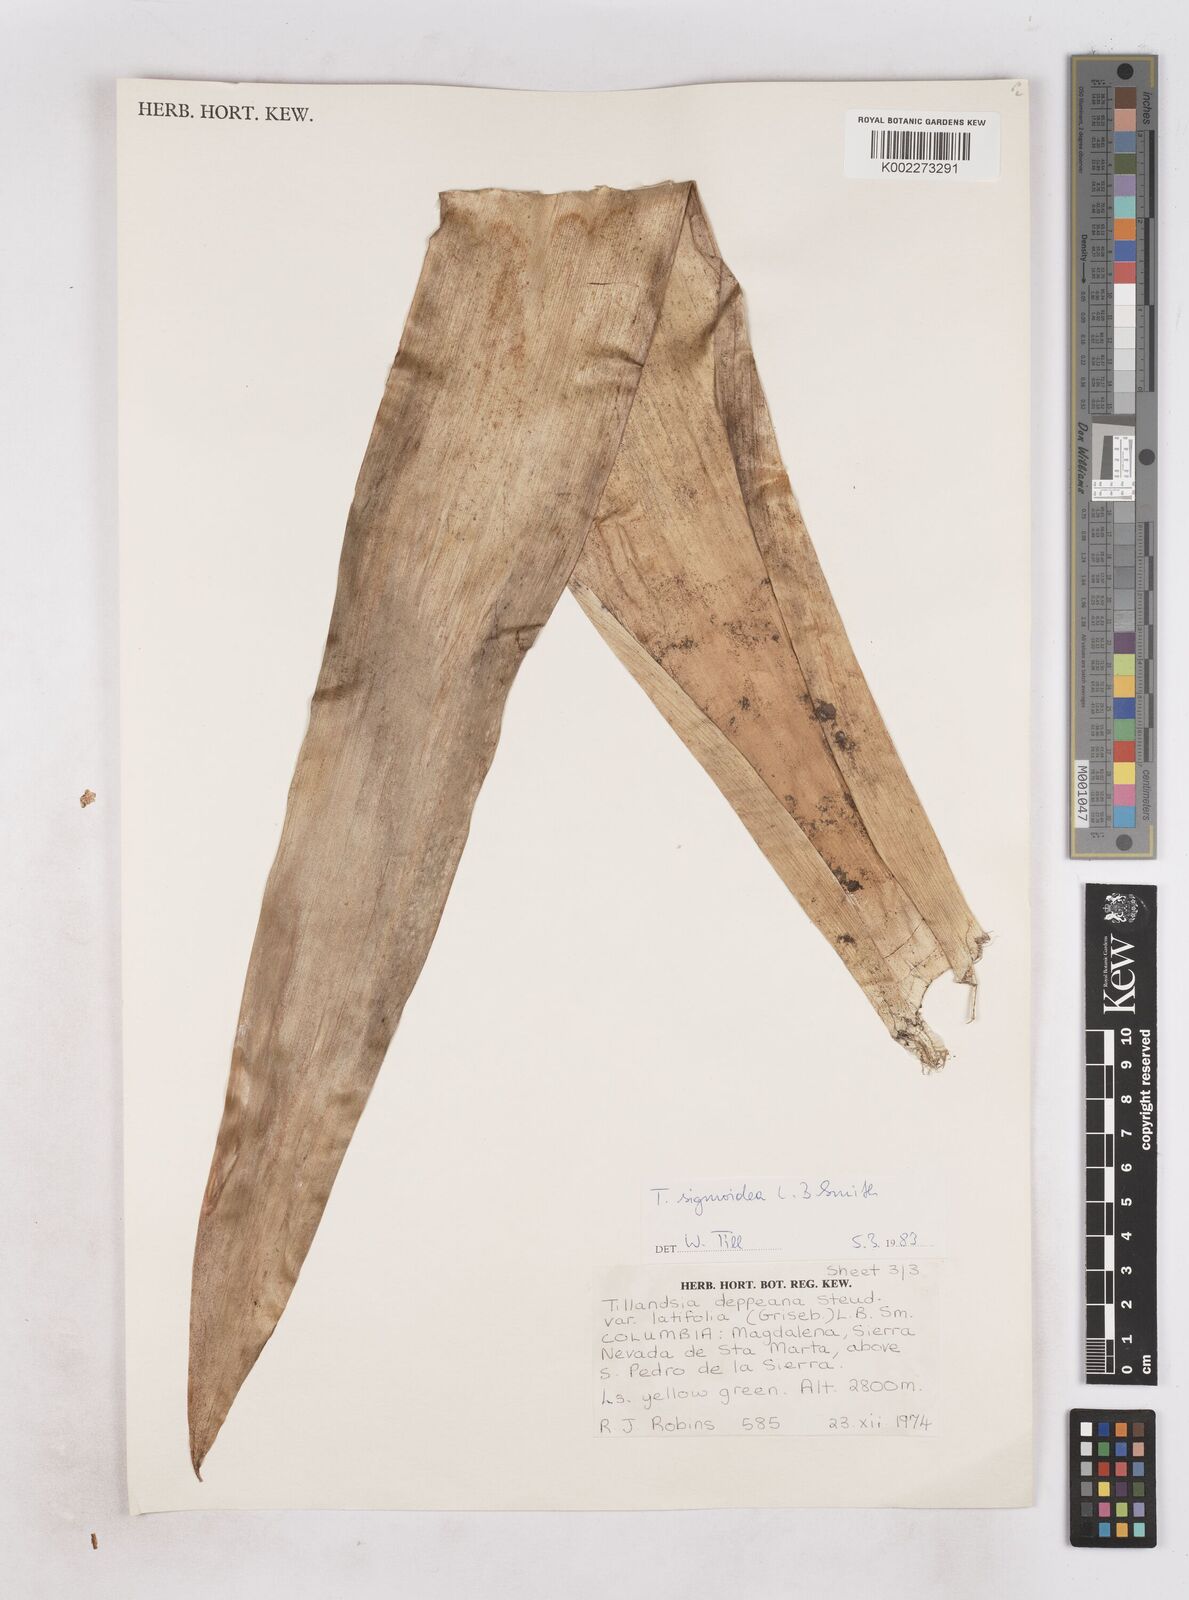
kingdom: Plantae
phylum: Tracheophyta
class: Liliopsida
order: Poales
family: Bromeliaceae
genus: Tillandsia
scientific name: Tillandsia sigmoidea
